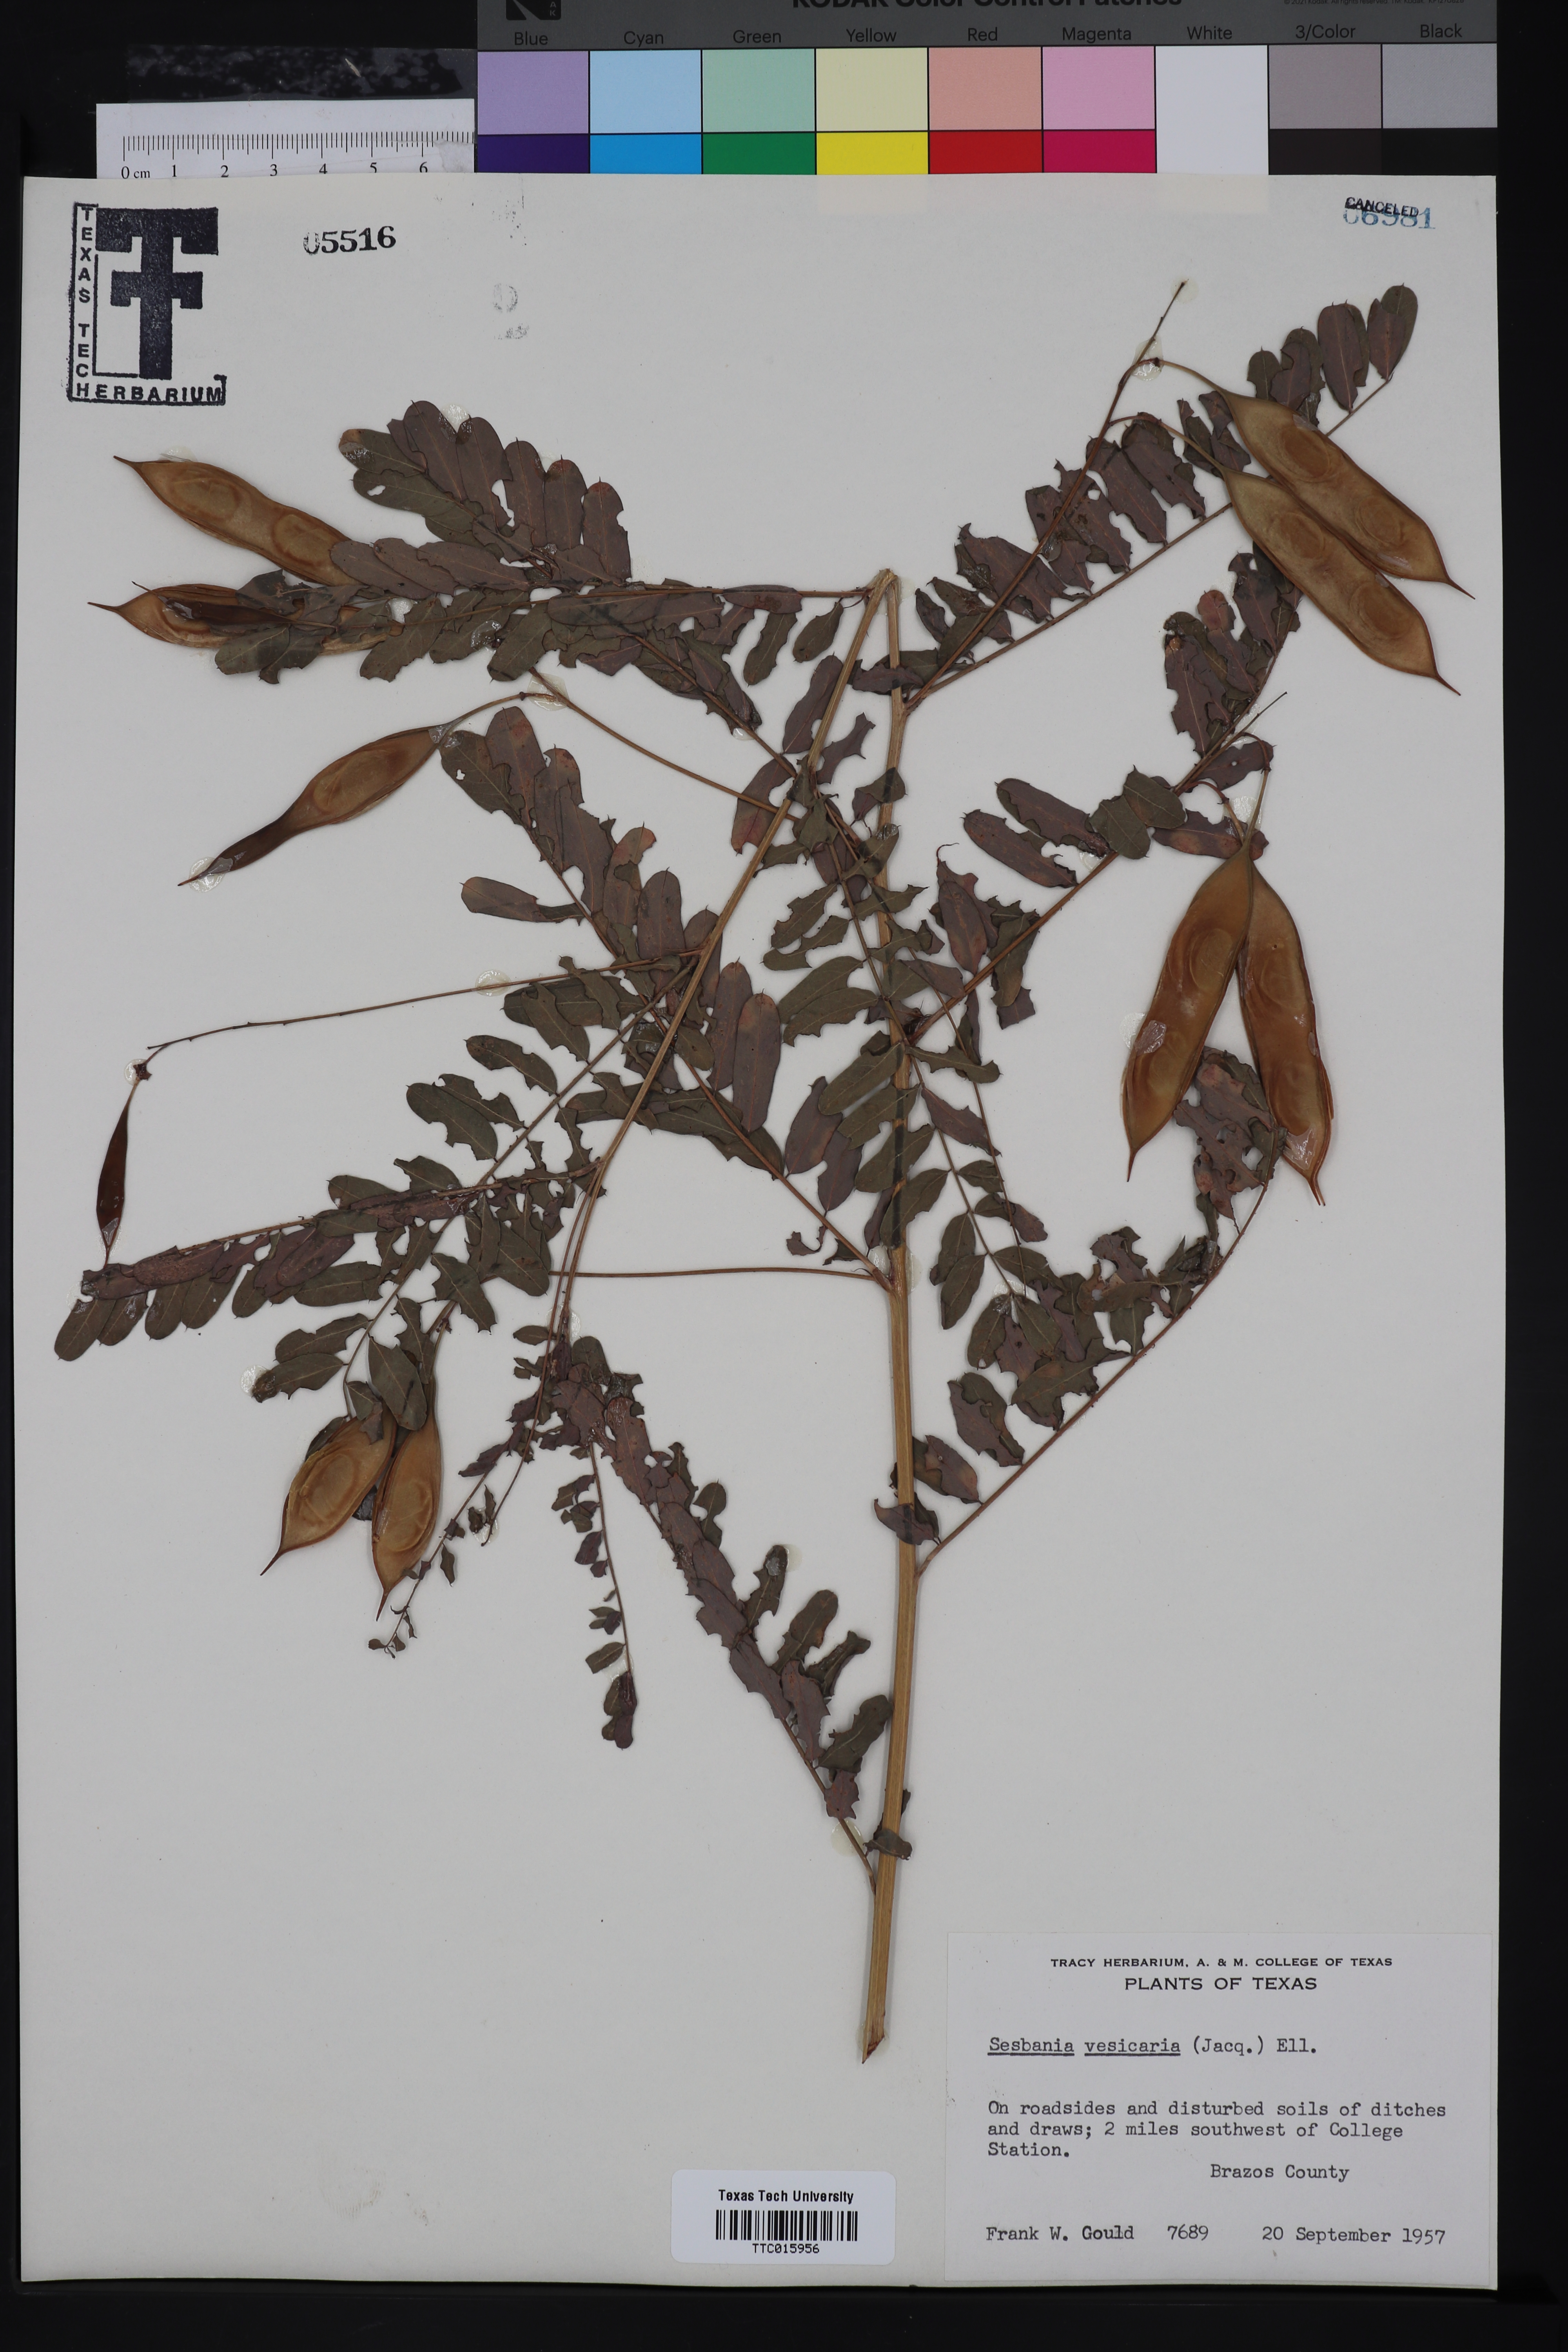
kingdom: Plantae
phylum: Tracheophyta
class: Magnoliopsida
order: Fabales
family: Fabaceae
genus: Sesbania
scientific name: Sesbania vesicaria
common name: Bagpod
